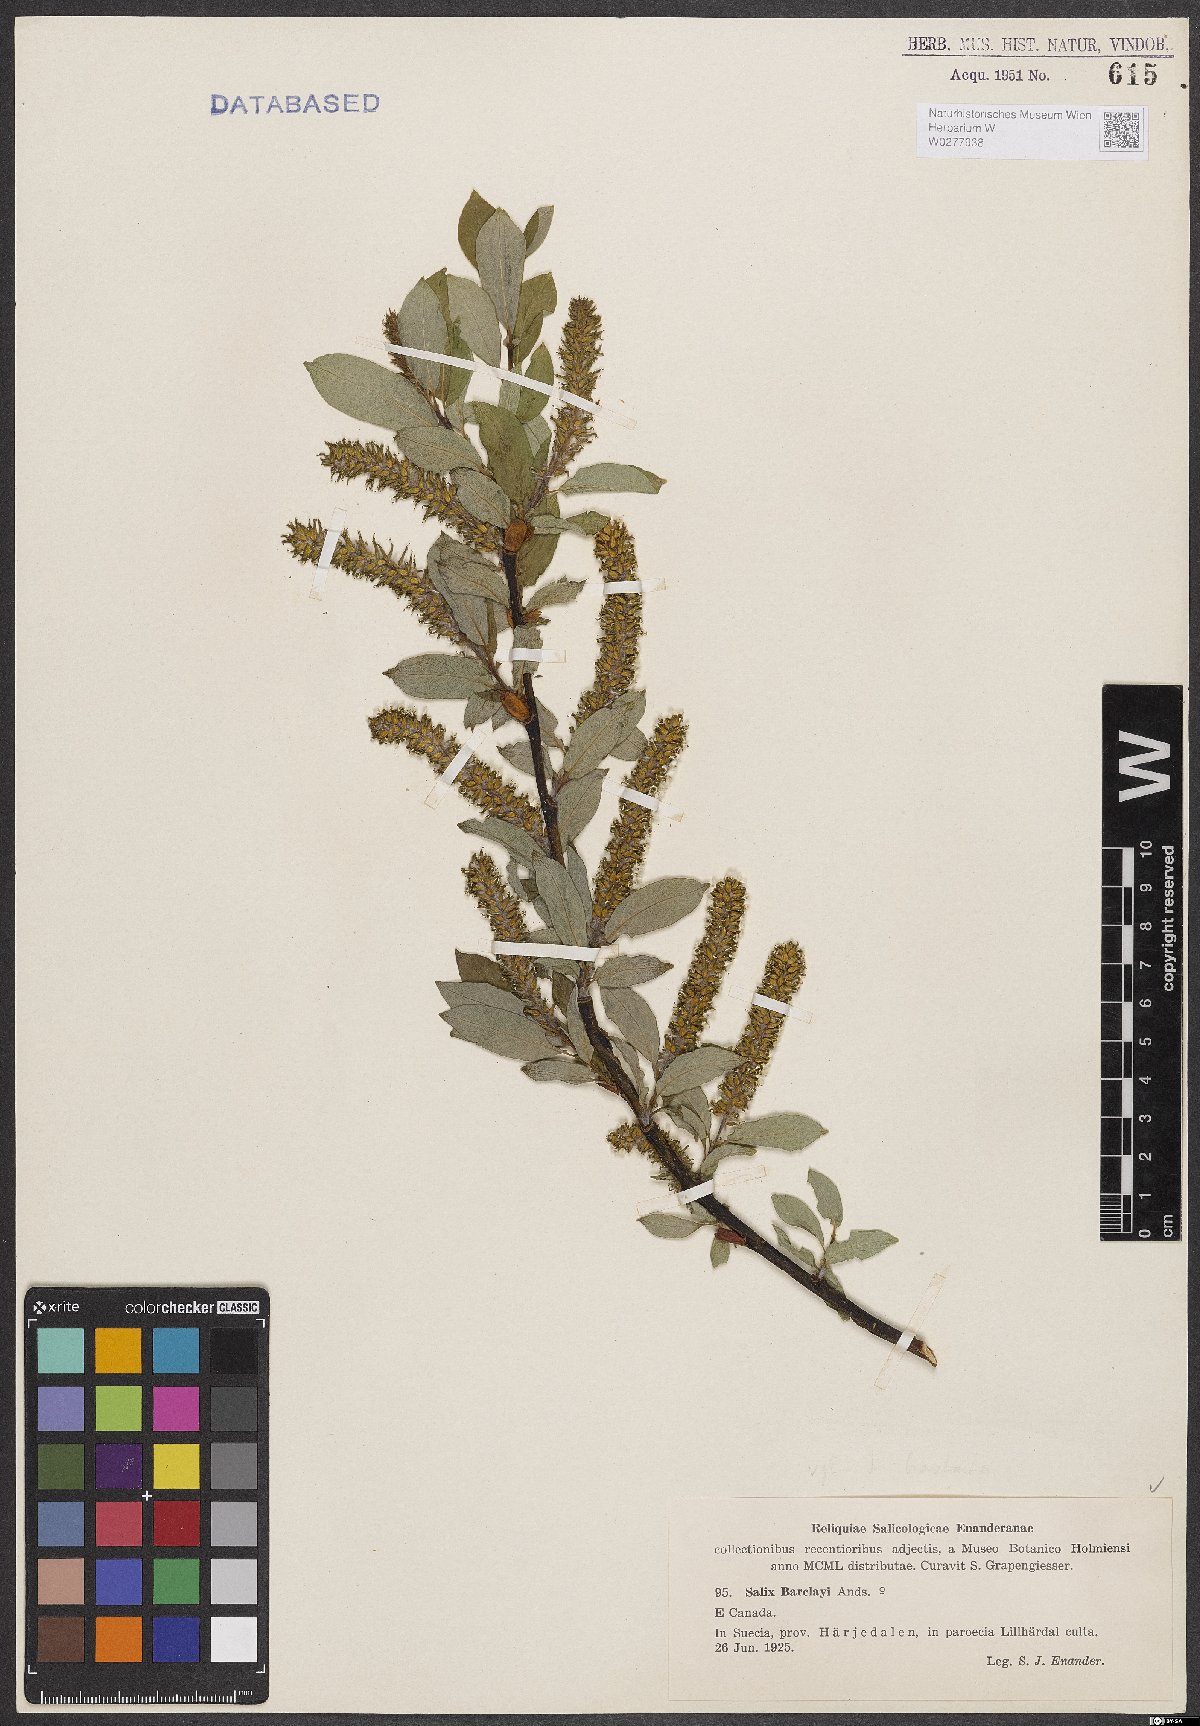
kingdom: Plantae
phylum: Tracheophyta
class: Magnoliopsida
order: Malpighiales
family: Salicaceae
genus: Salix
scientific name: Salix barclayi
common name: Mountain willow
